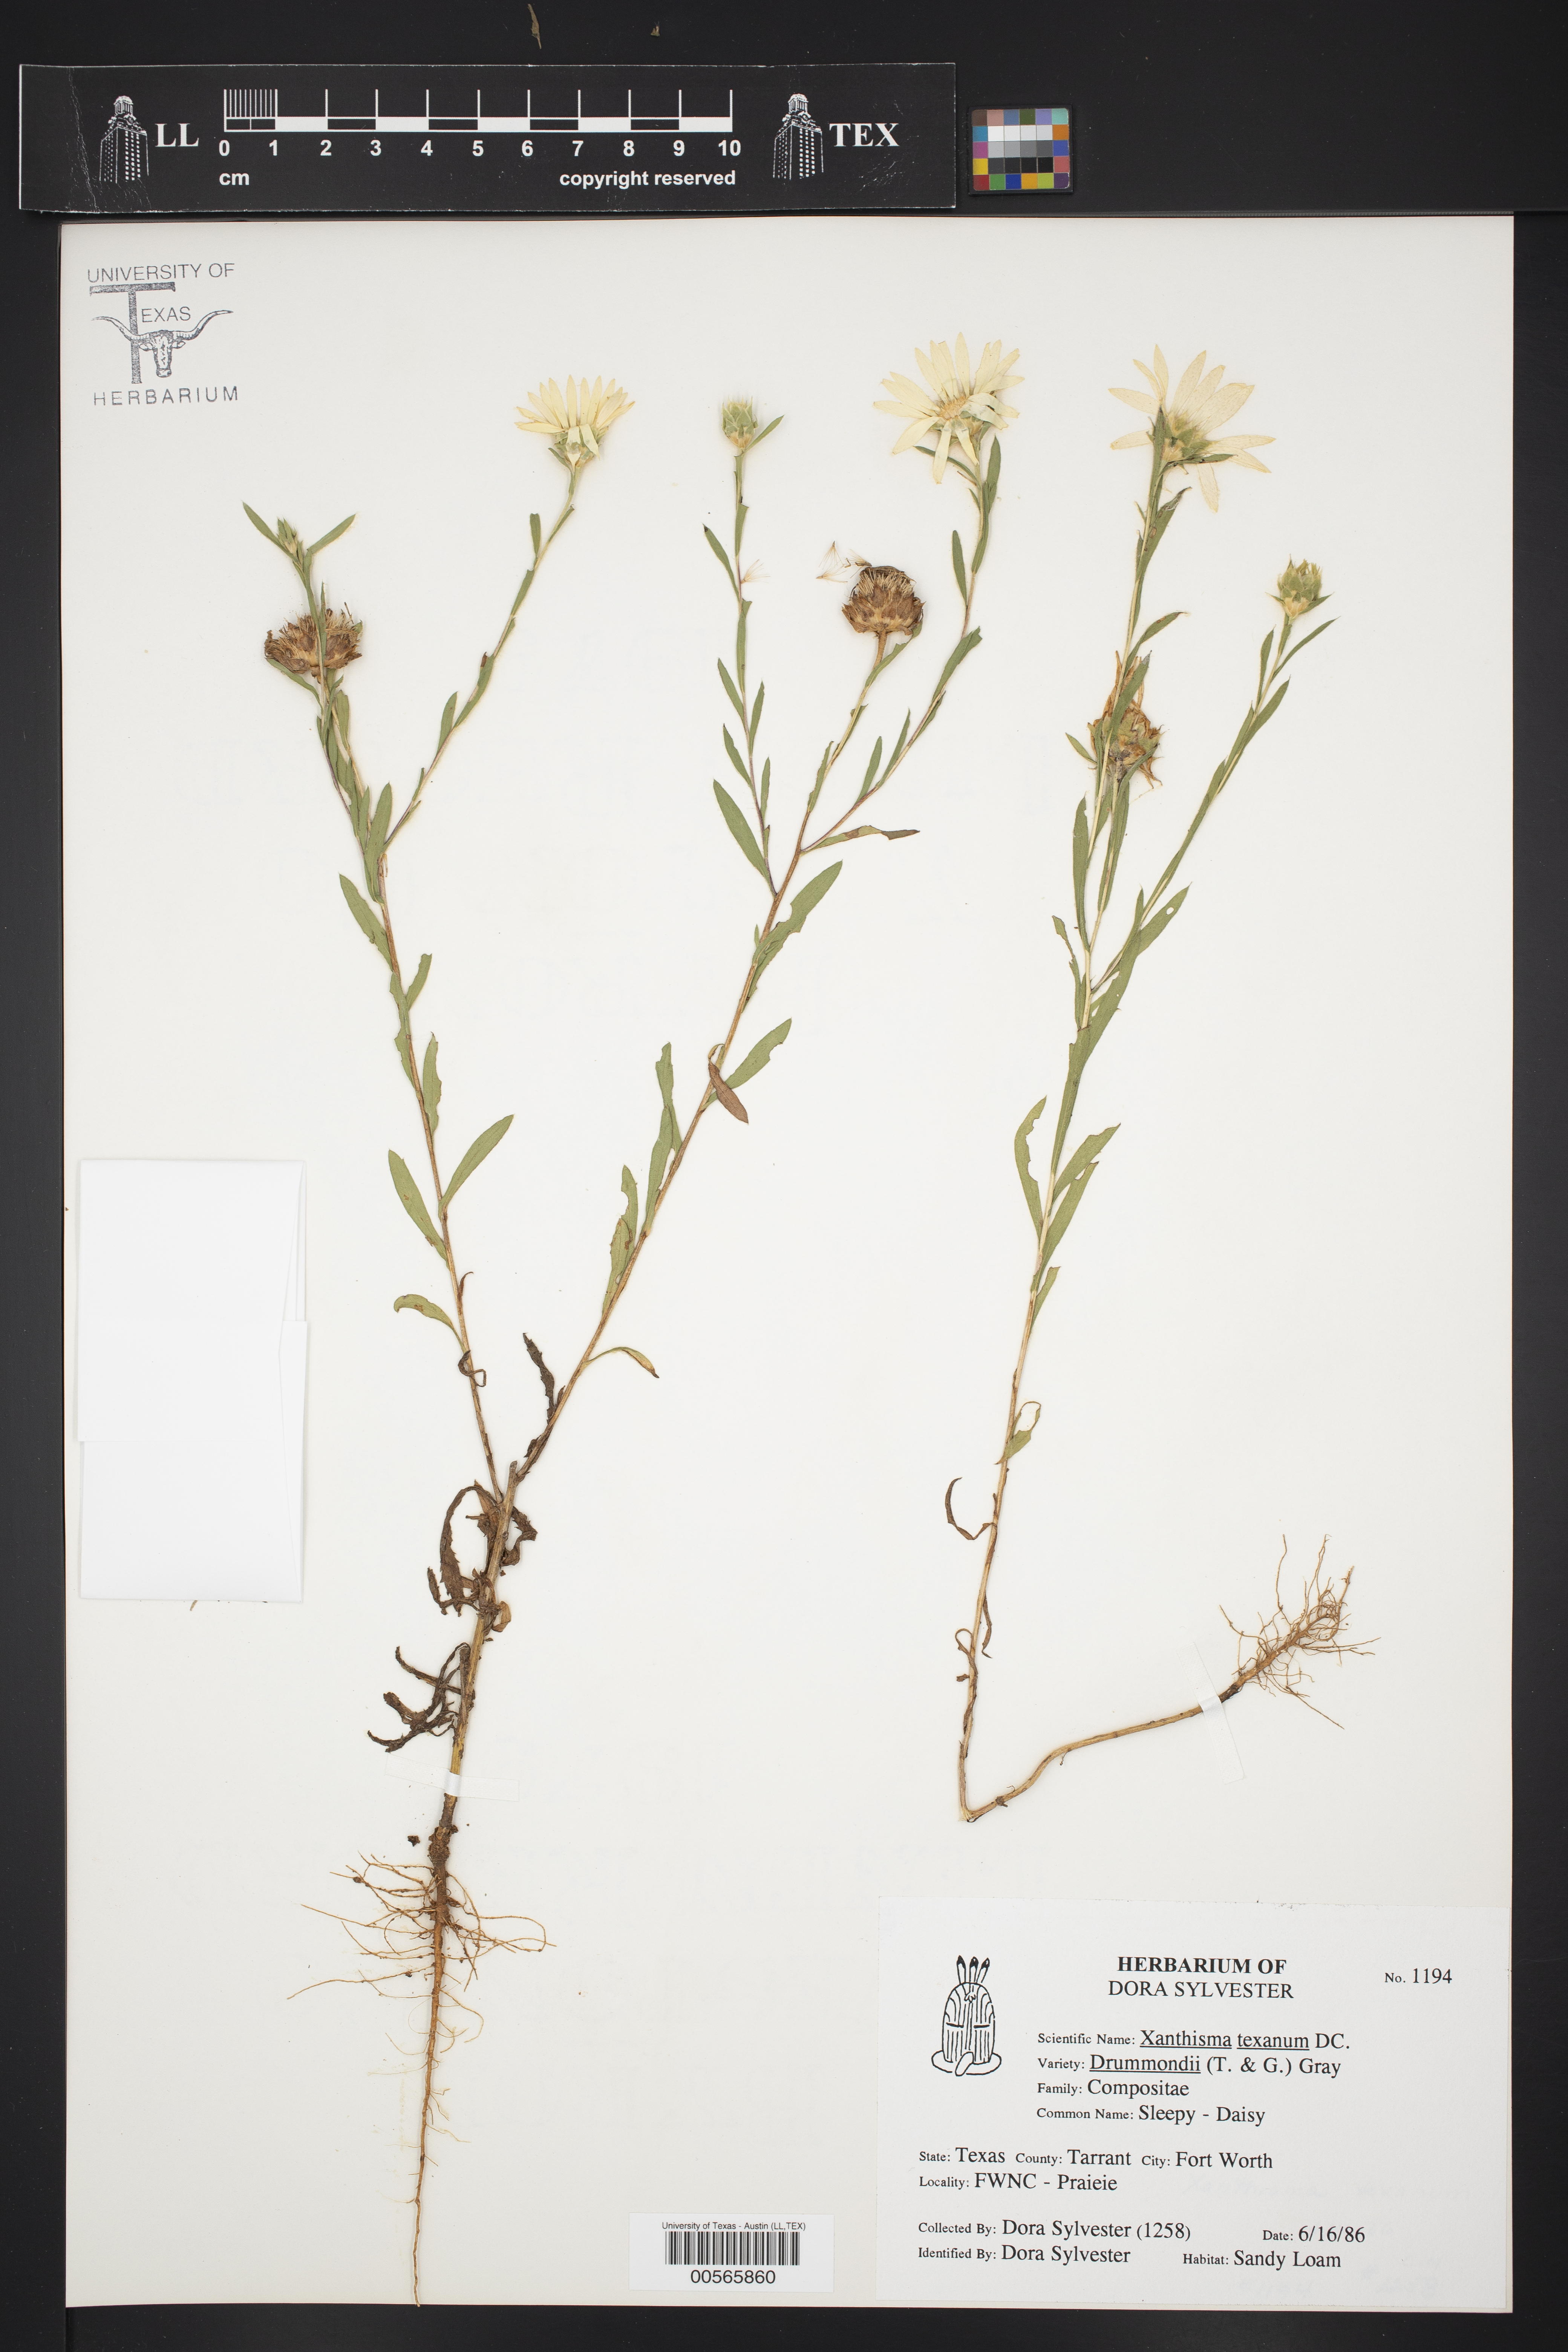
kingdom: Plantae
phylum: Tracheophyta
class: Magnoliopsida
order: Asterales
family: Asteraceae
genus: Xanthisma
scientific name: Xanthisma texanum
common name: Texas sleepy daisy
